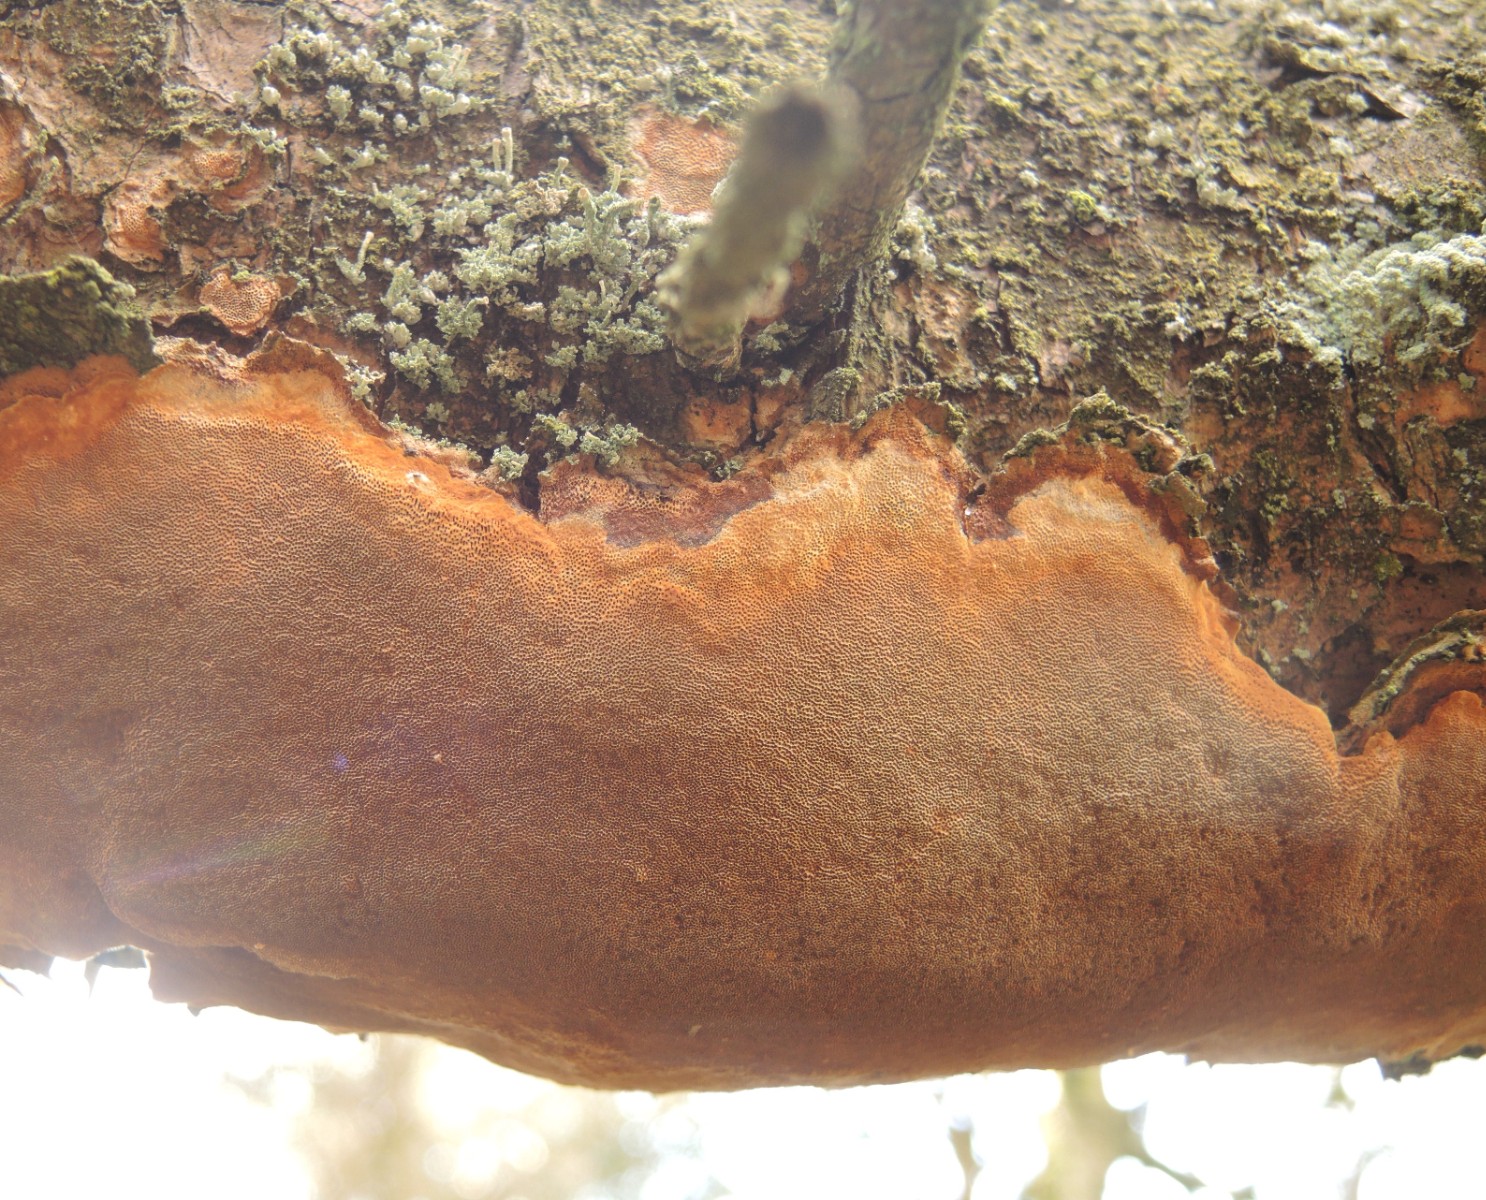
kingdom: Fungi
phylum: Basidiomycota
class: Agaricomycetes
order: Hymenochaetales
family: Hymenochaetaceae
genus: Fuscoporia
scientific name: Fuscoporia ferrea
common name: skorpe-ildporesvamp
